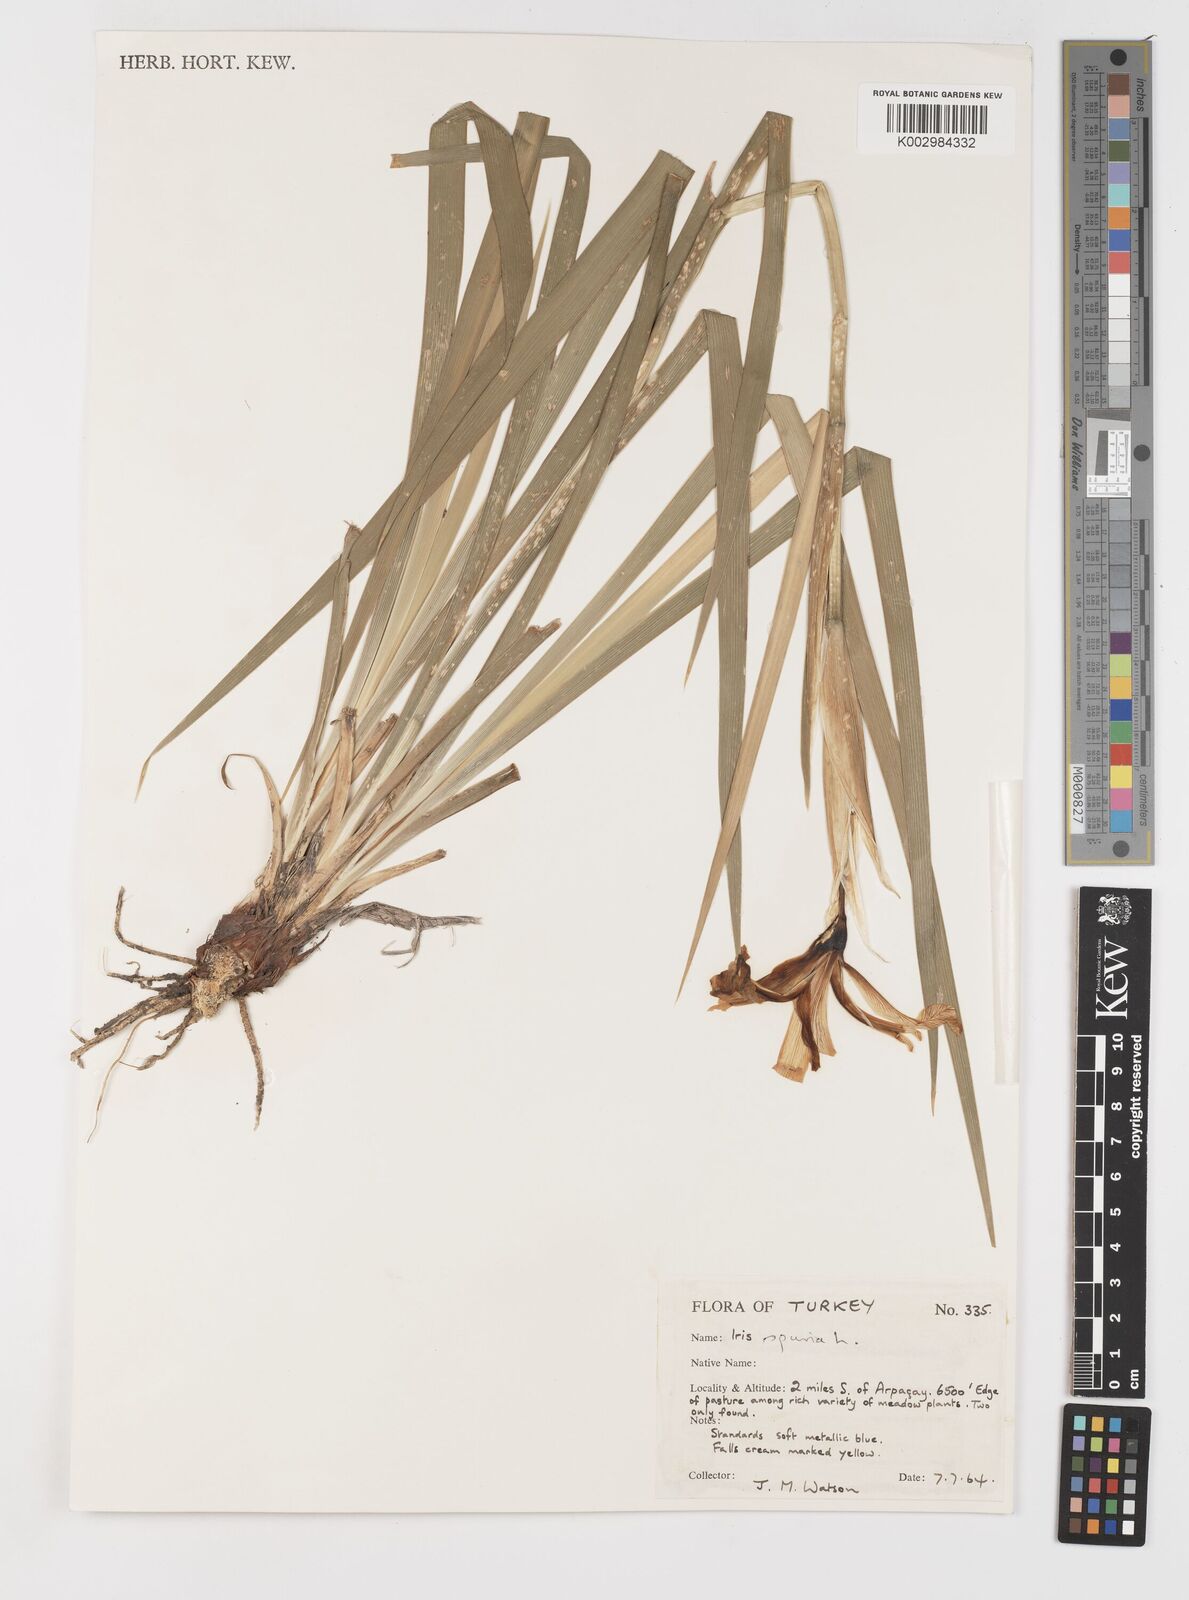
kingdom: Plantae
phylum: Tracheophyta
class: Liliopsida
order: Asparagales
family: Iridaceae
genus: Iris
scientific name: Iris spuria
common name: Blue iris
